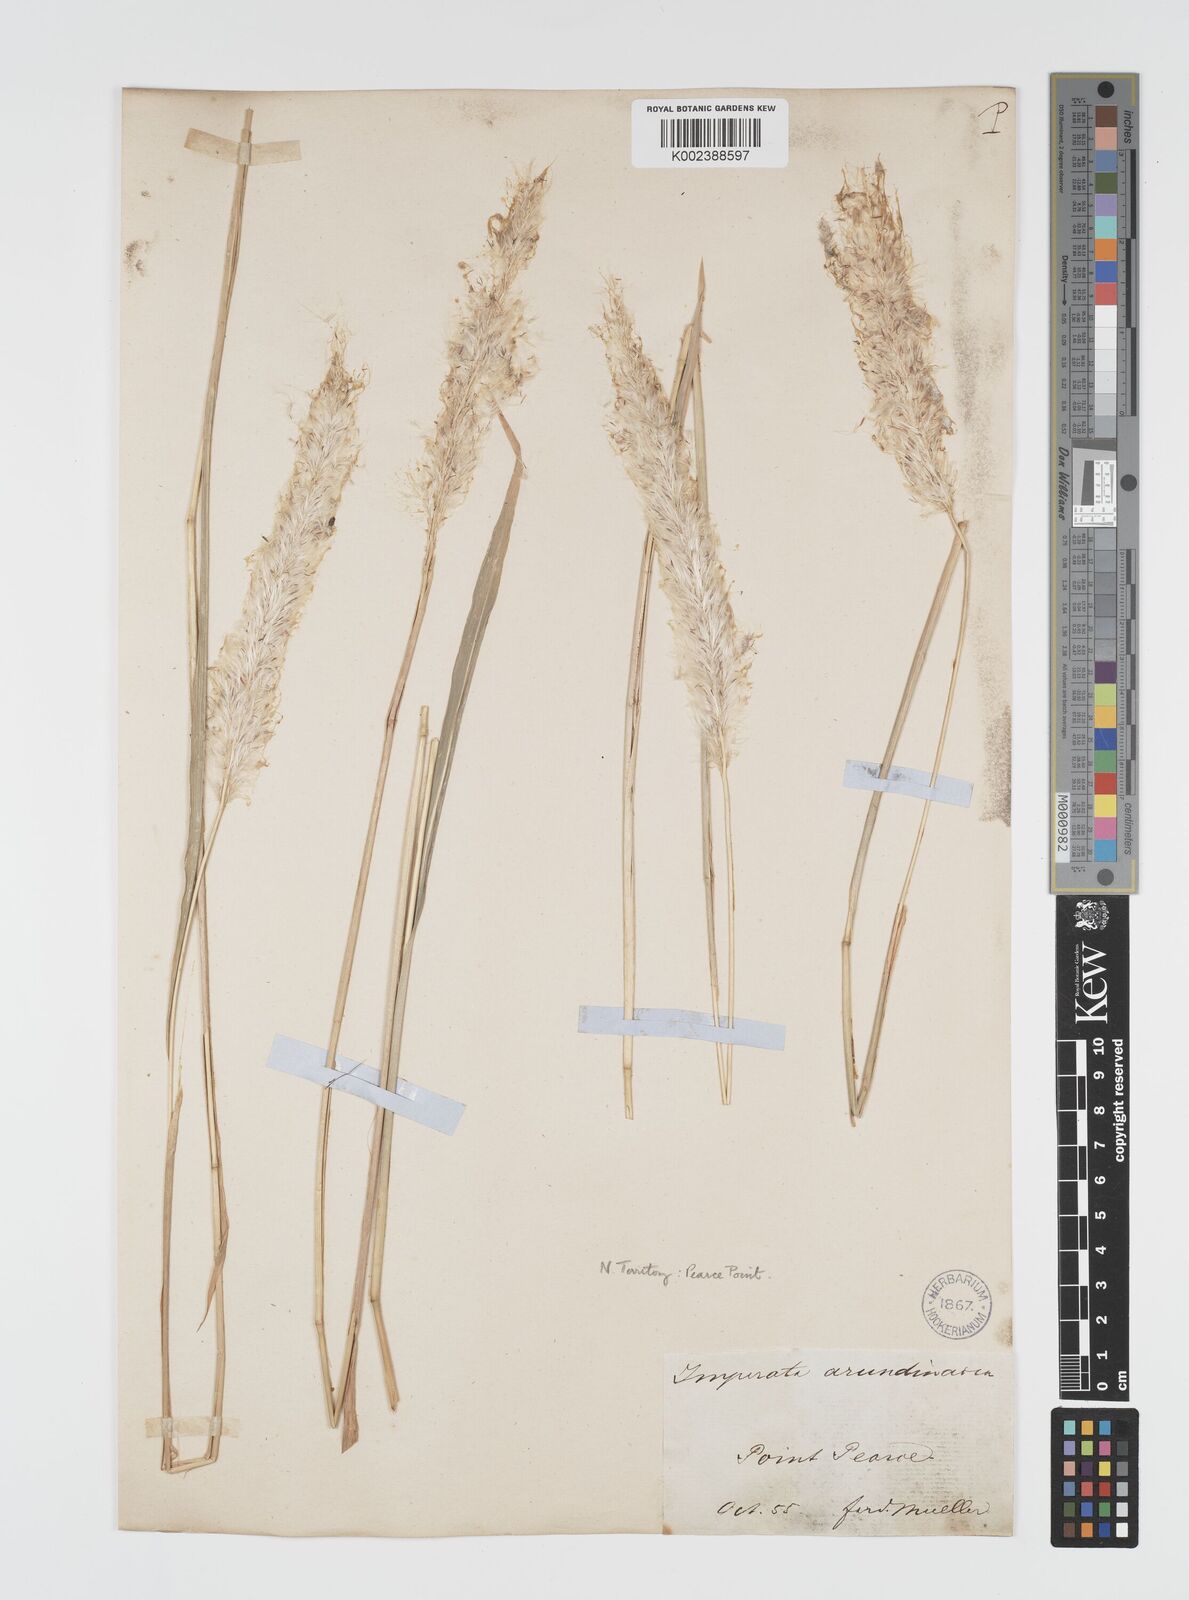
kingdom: Plantae
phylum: Tracheophyta
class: Liliopsida
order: Poales
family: Poaceae
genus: Imperata
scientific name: Imperata cylindrica
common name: Cogongrass
